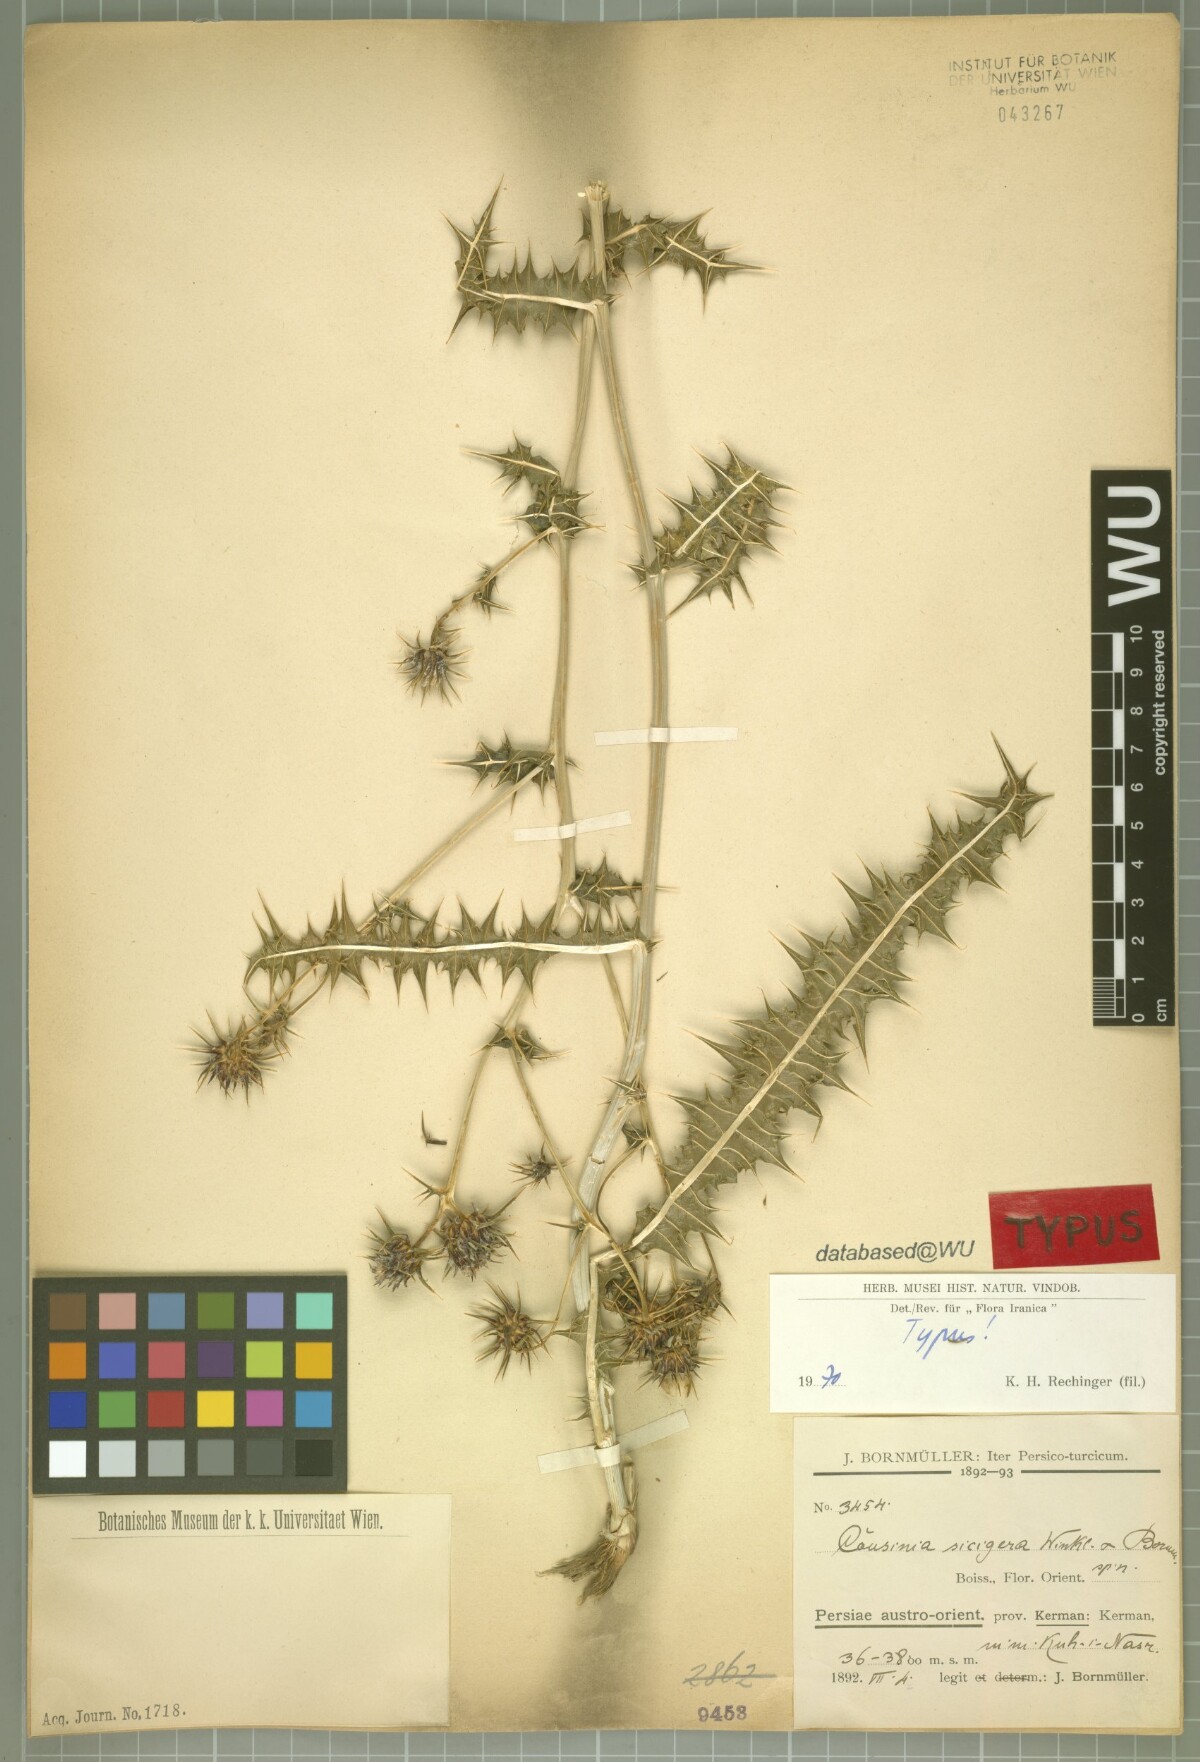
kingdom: Plantae
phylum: Tracheophyta
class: Magnoliopsida
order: Asterales
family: Asteraceae
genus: Cousinia
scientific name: Cousinia sicigera
